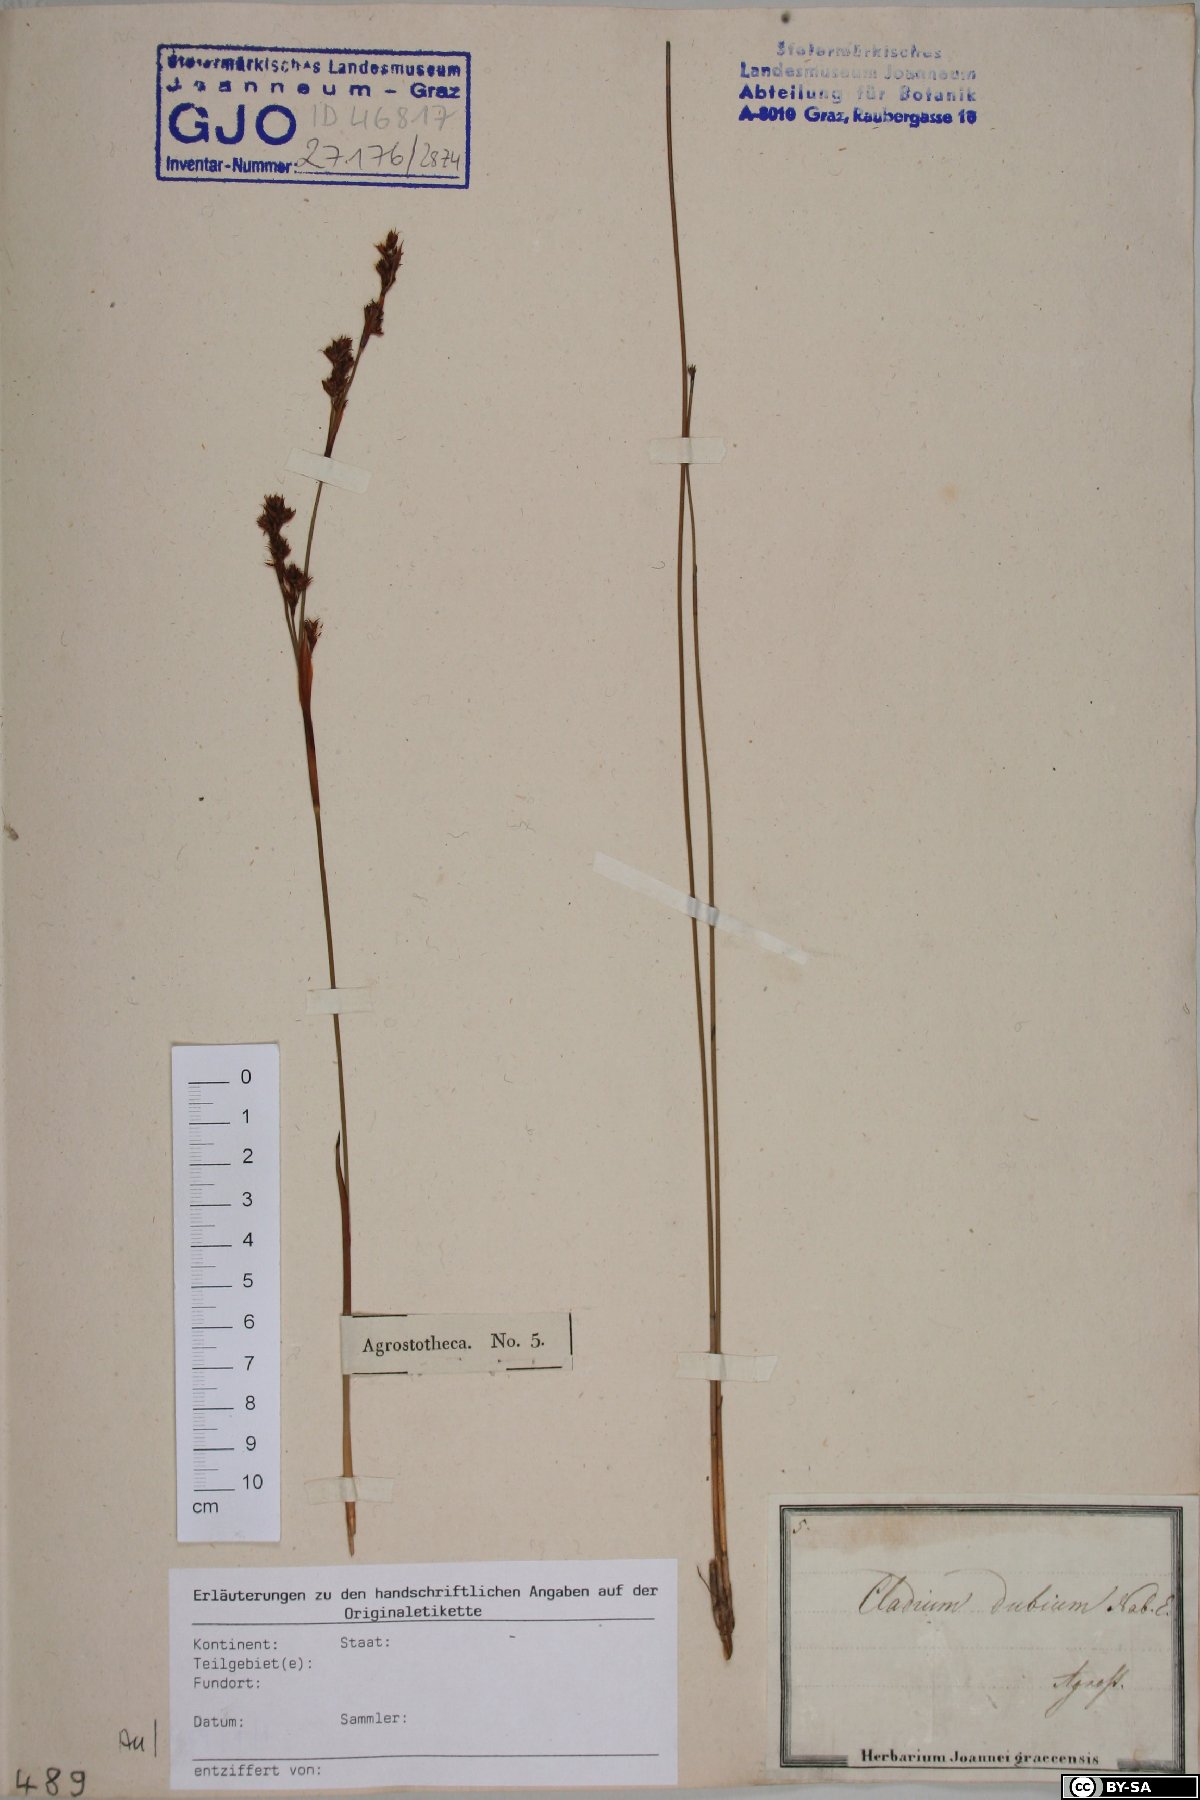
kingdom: Plantae
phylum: Tracheophyta
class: Liliopsida
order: Poales
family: Cyperaceae
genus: Machaerina
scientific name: Machaerina rubiginosa
